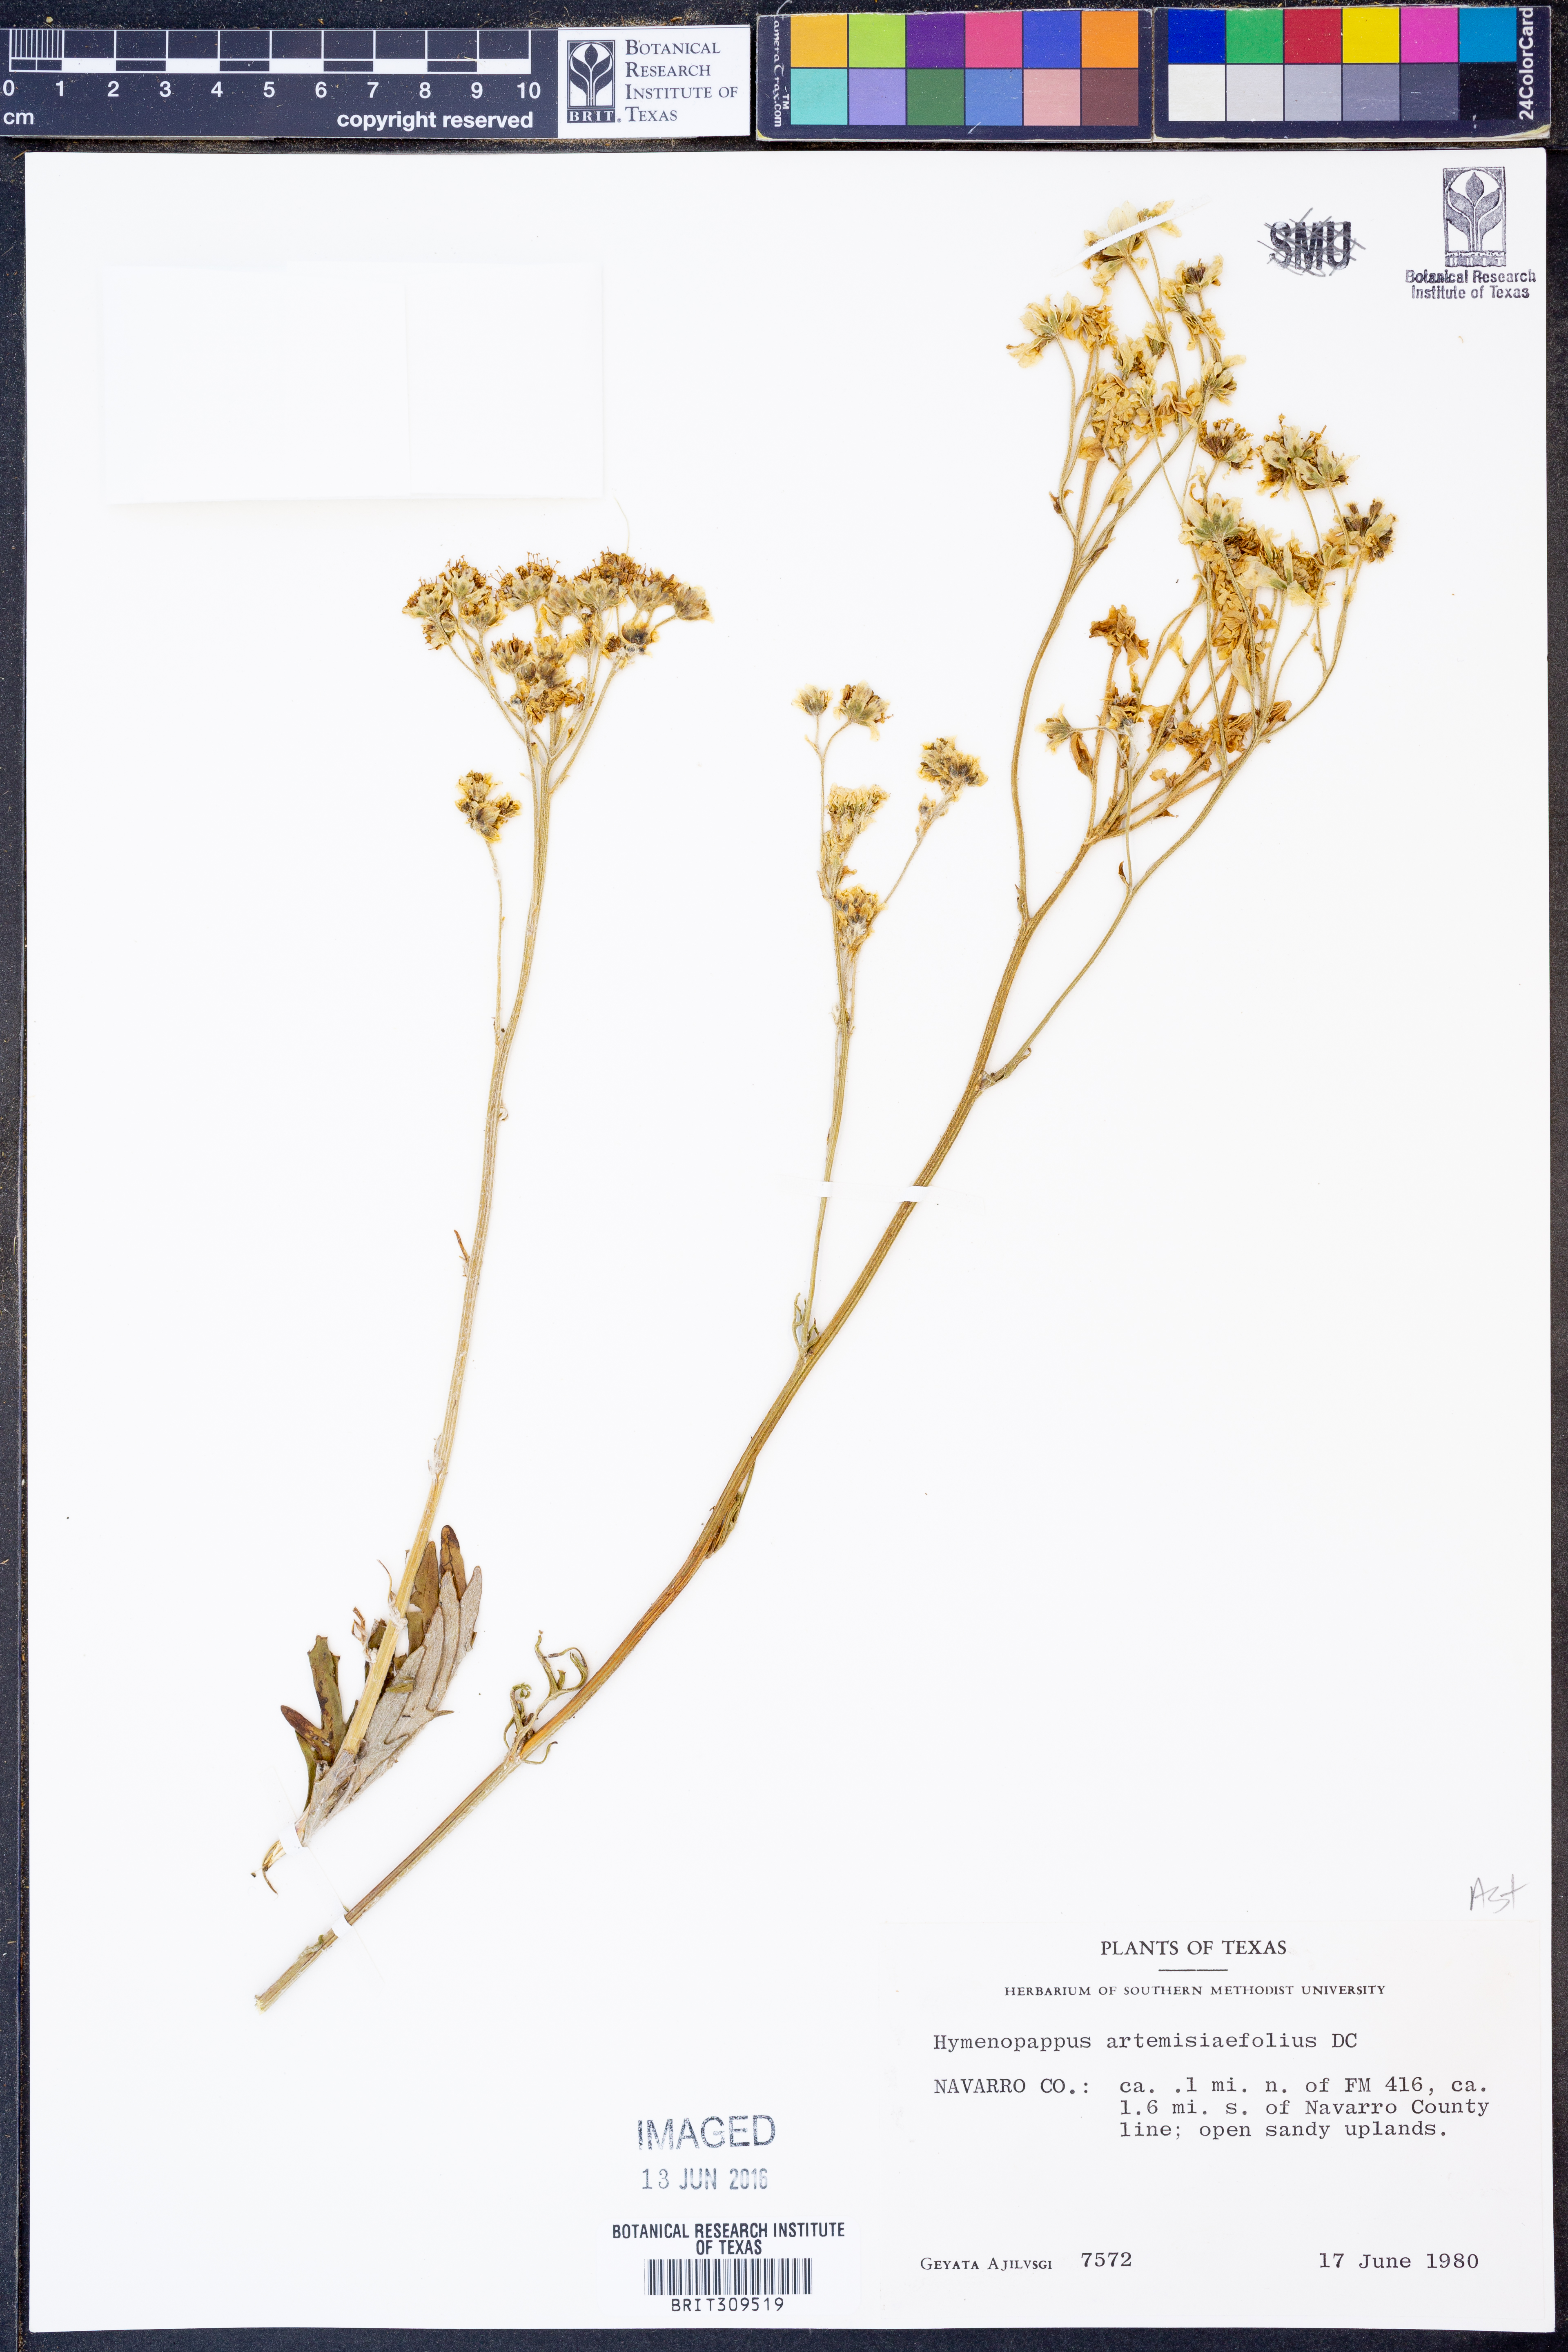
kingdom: Plantae
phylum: Tracheophyta
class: Magnoliopsida
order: Asterales
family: Asteraceae
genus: Hymenopappus
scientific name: Hymenopappus artemisiifolius
